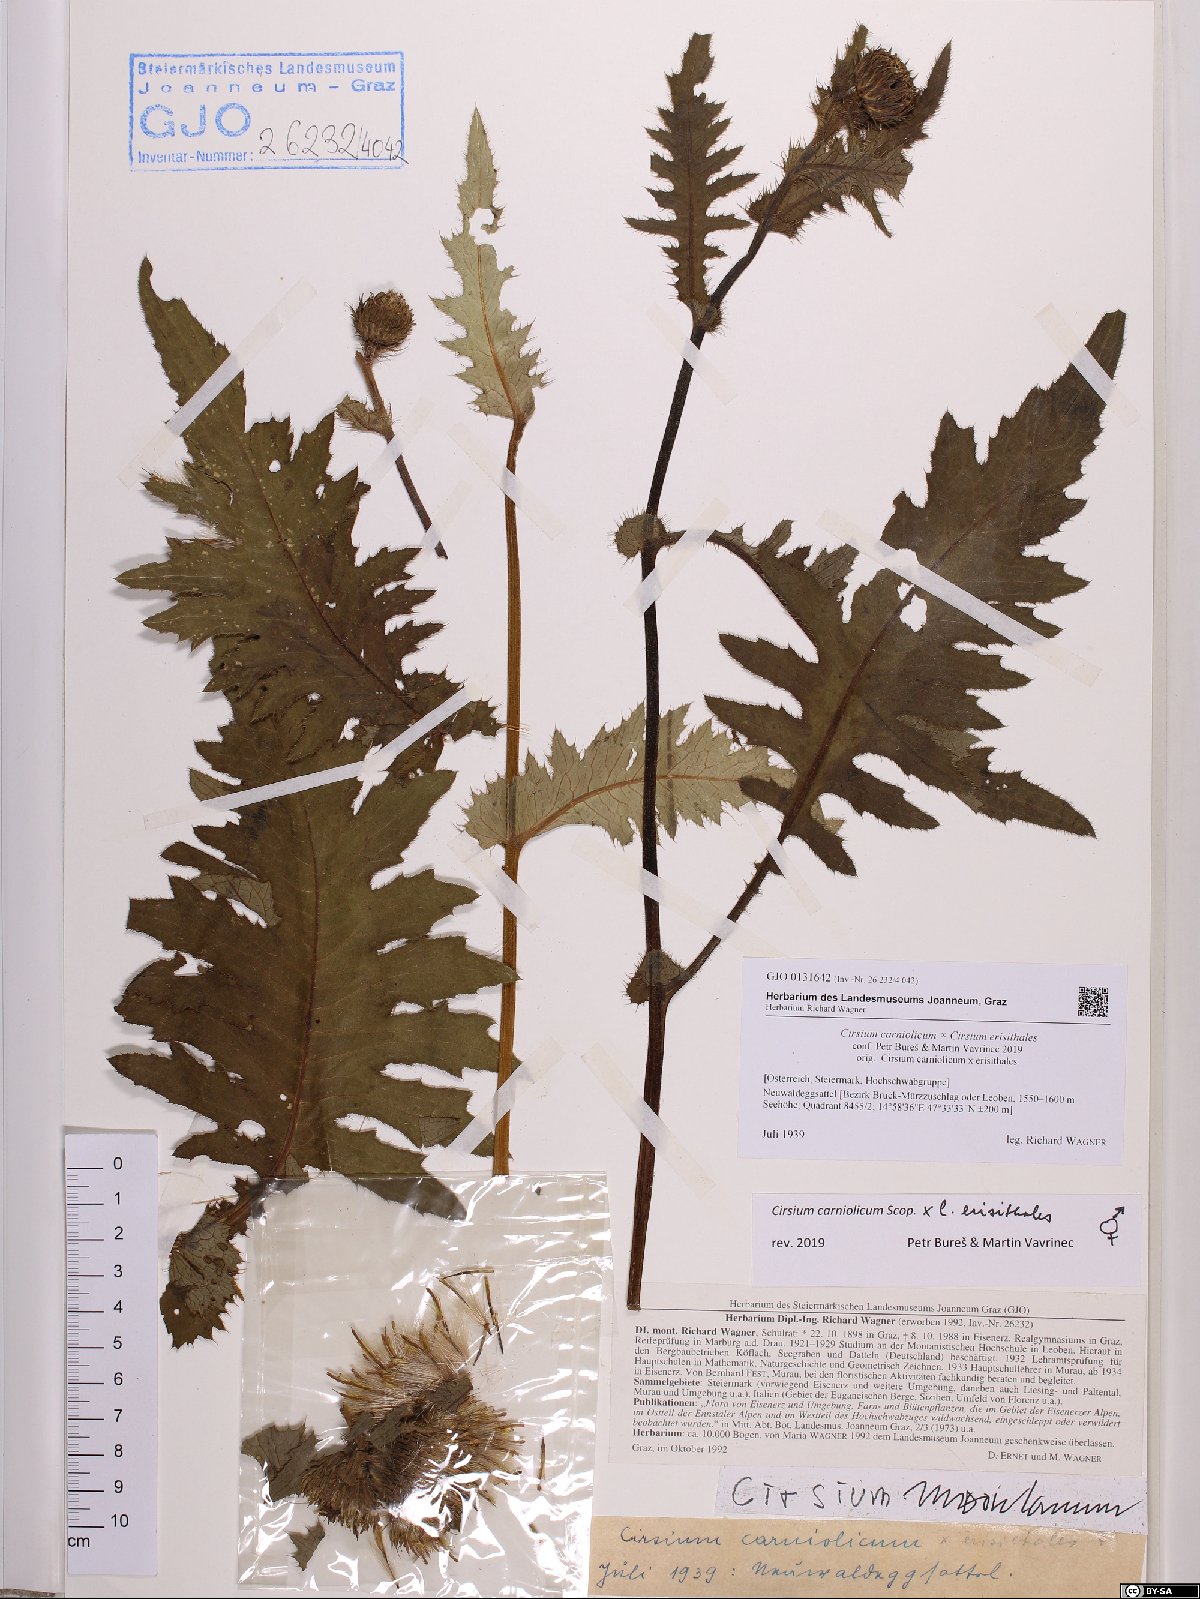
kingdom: Plantae
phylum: Tracheophyta
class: Magnoliopsida
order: Asterales
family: Asteraceae
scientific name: Asteraceae
